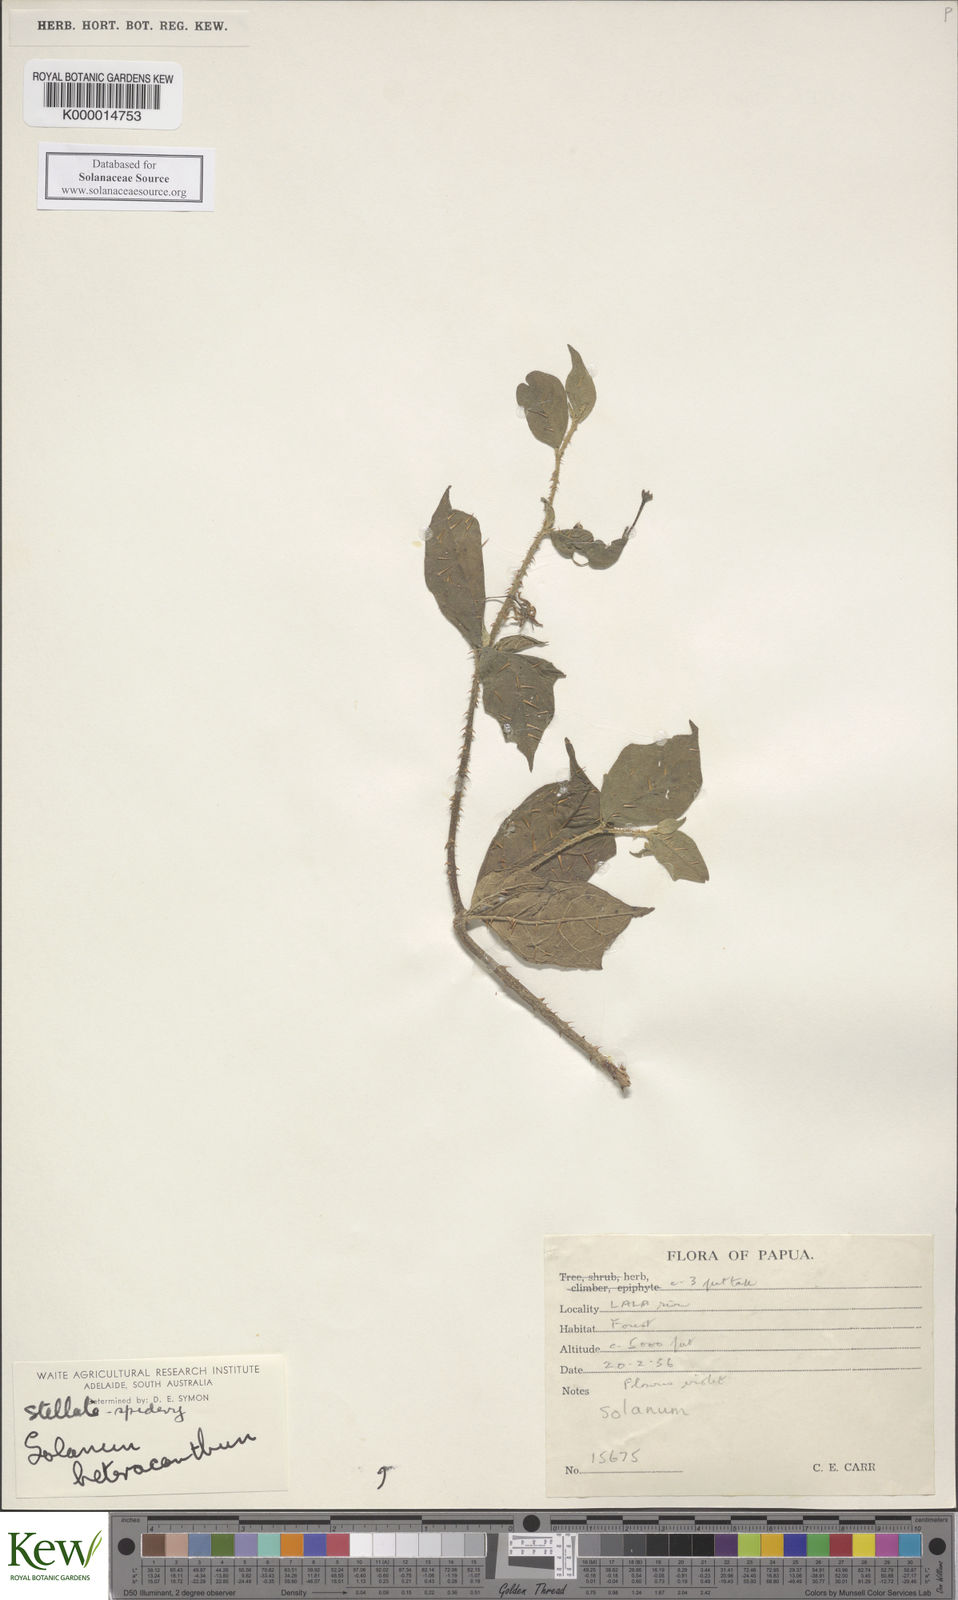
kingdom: Plantae
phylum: Tracheophyta
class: Magnoliopsida
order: Solanales
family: Solanaceae
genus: Solanum
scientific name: Solanum galactites
